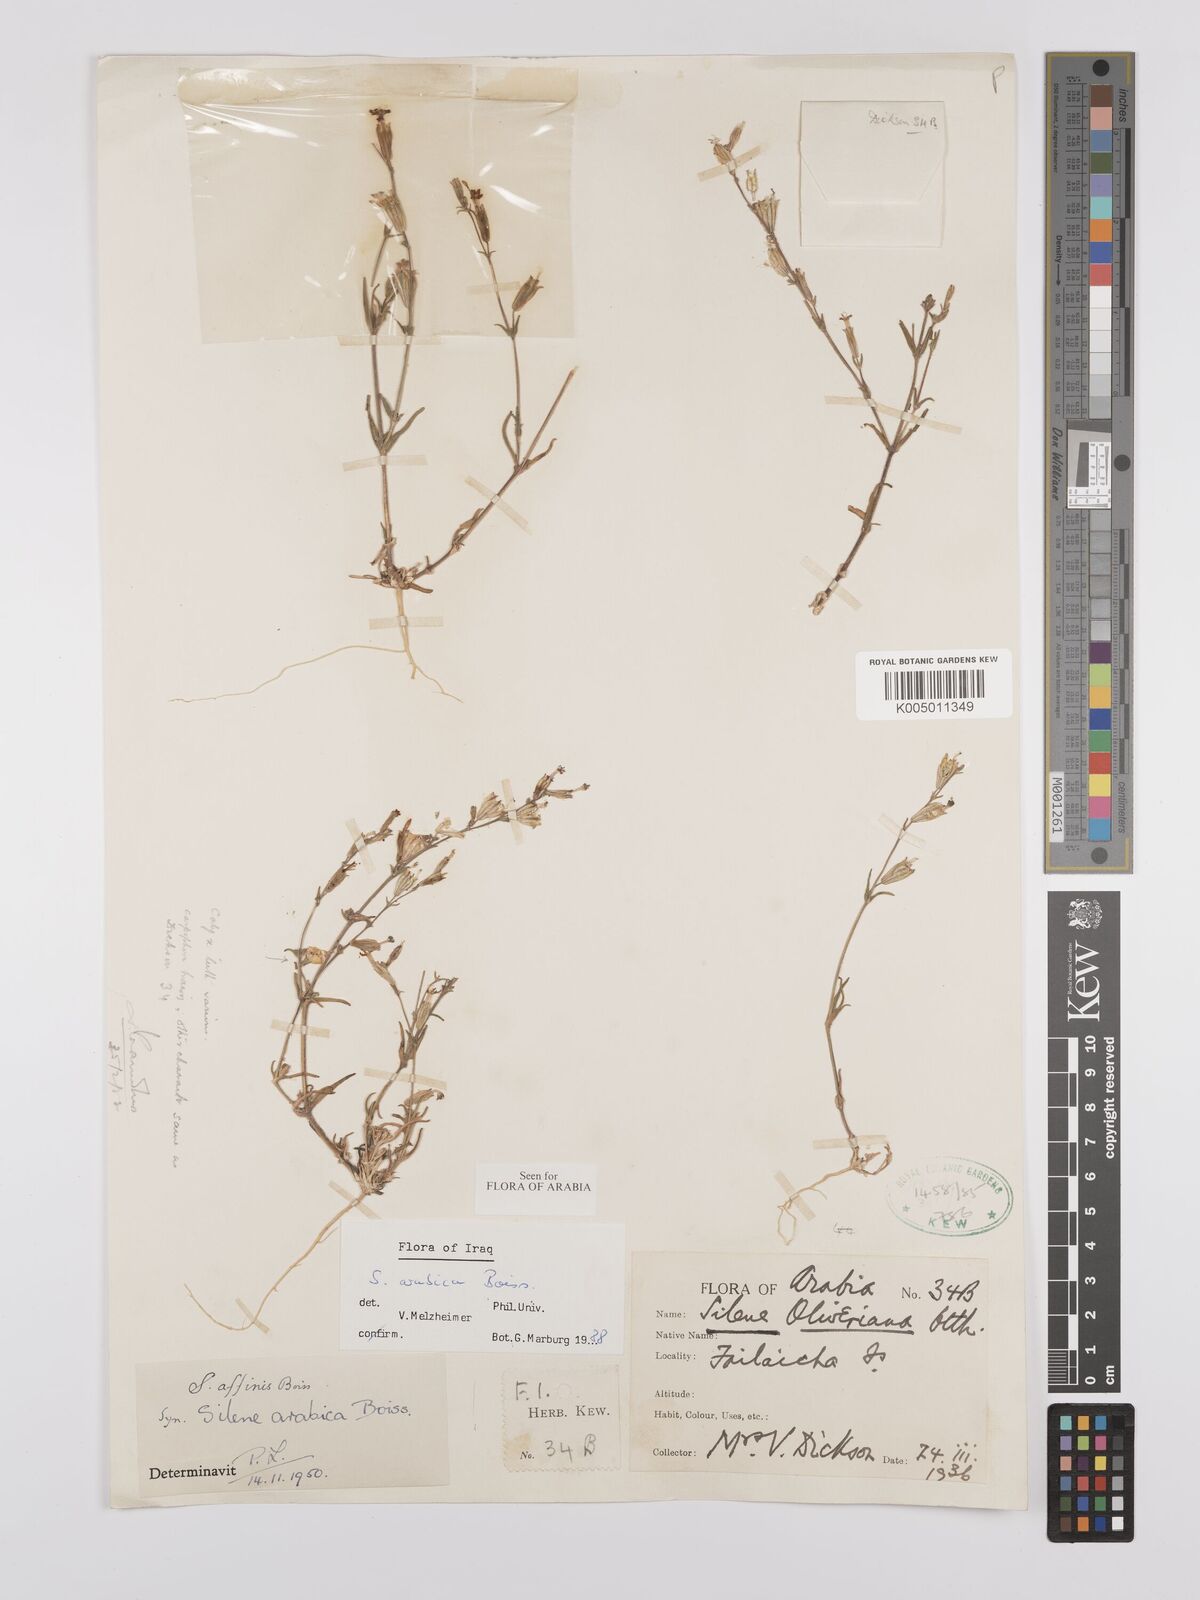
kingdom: Plantae
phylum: Tracheophyta
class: Magnoliopsida
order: Caryophyllales
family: Caryophyllaceae
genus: Silene
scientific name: Silene arabica
